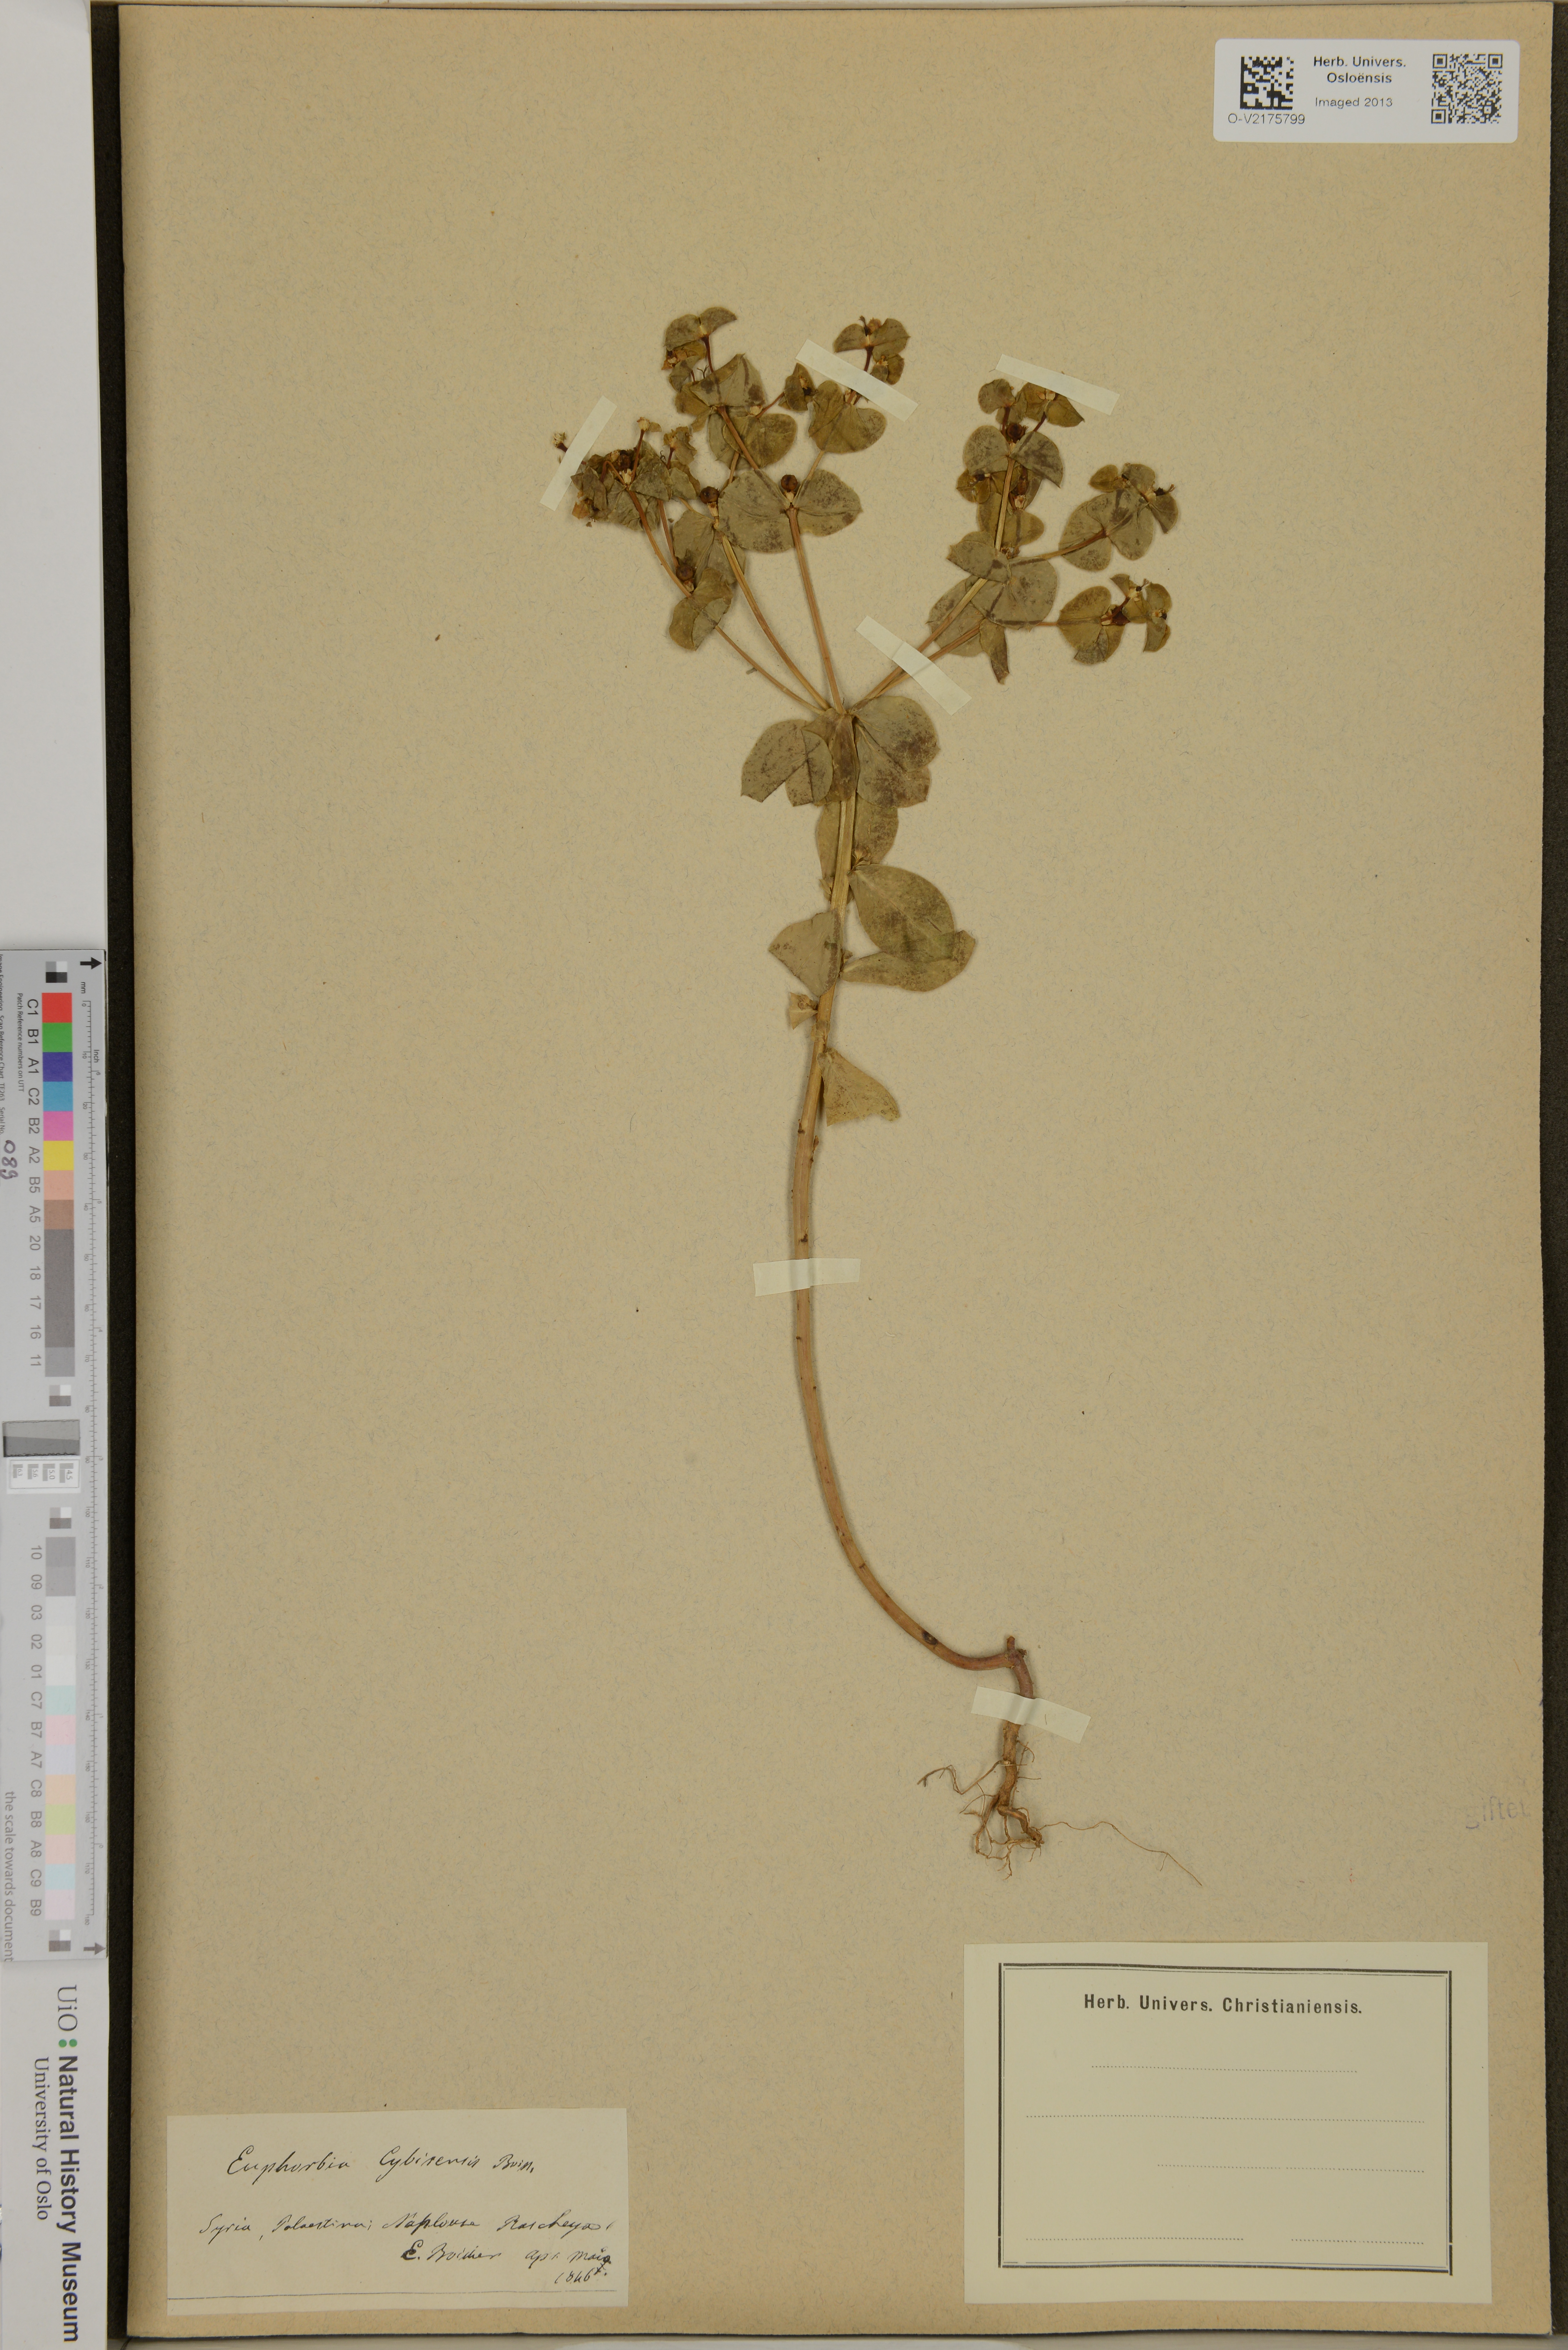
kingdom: Plantae
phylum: Tracheophyta
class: Magnoliopsida
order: Malpighiales
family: Euphorbiaceae
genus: Euphorbia
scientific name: Euphorbia valerianifolia
